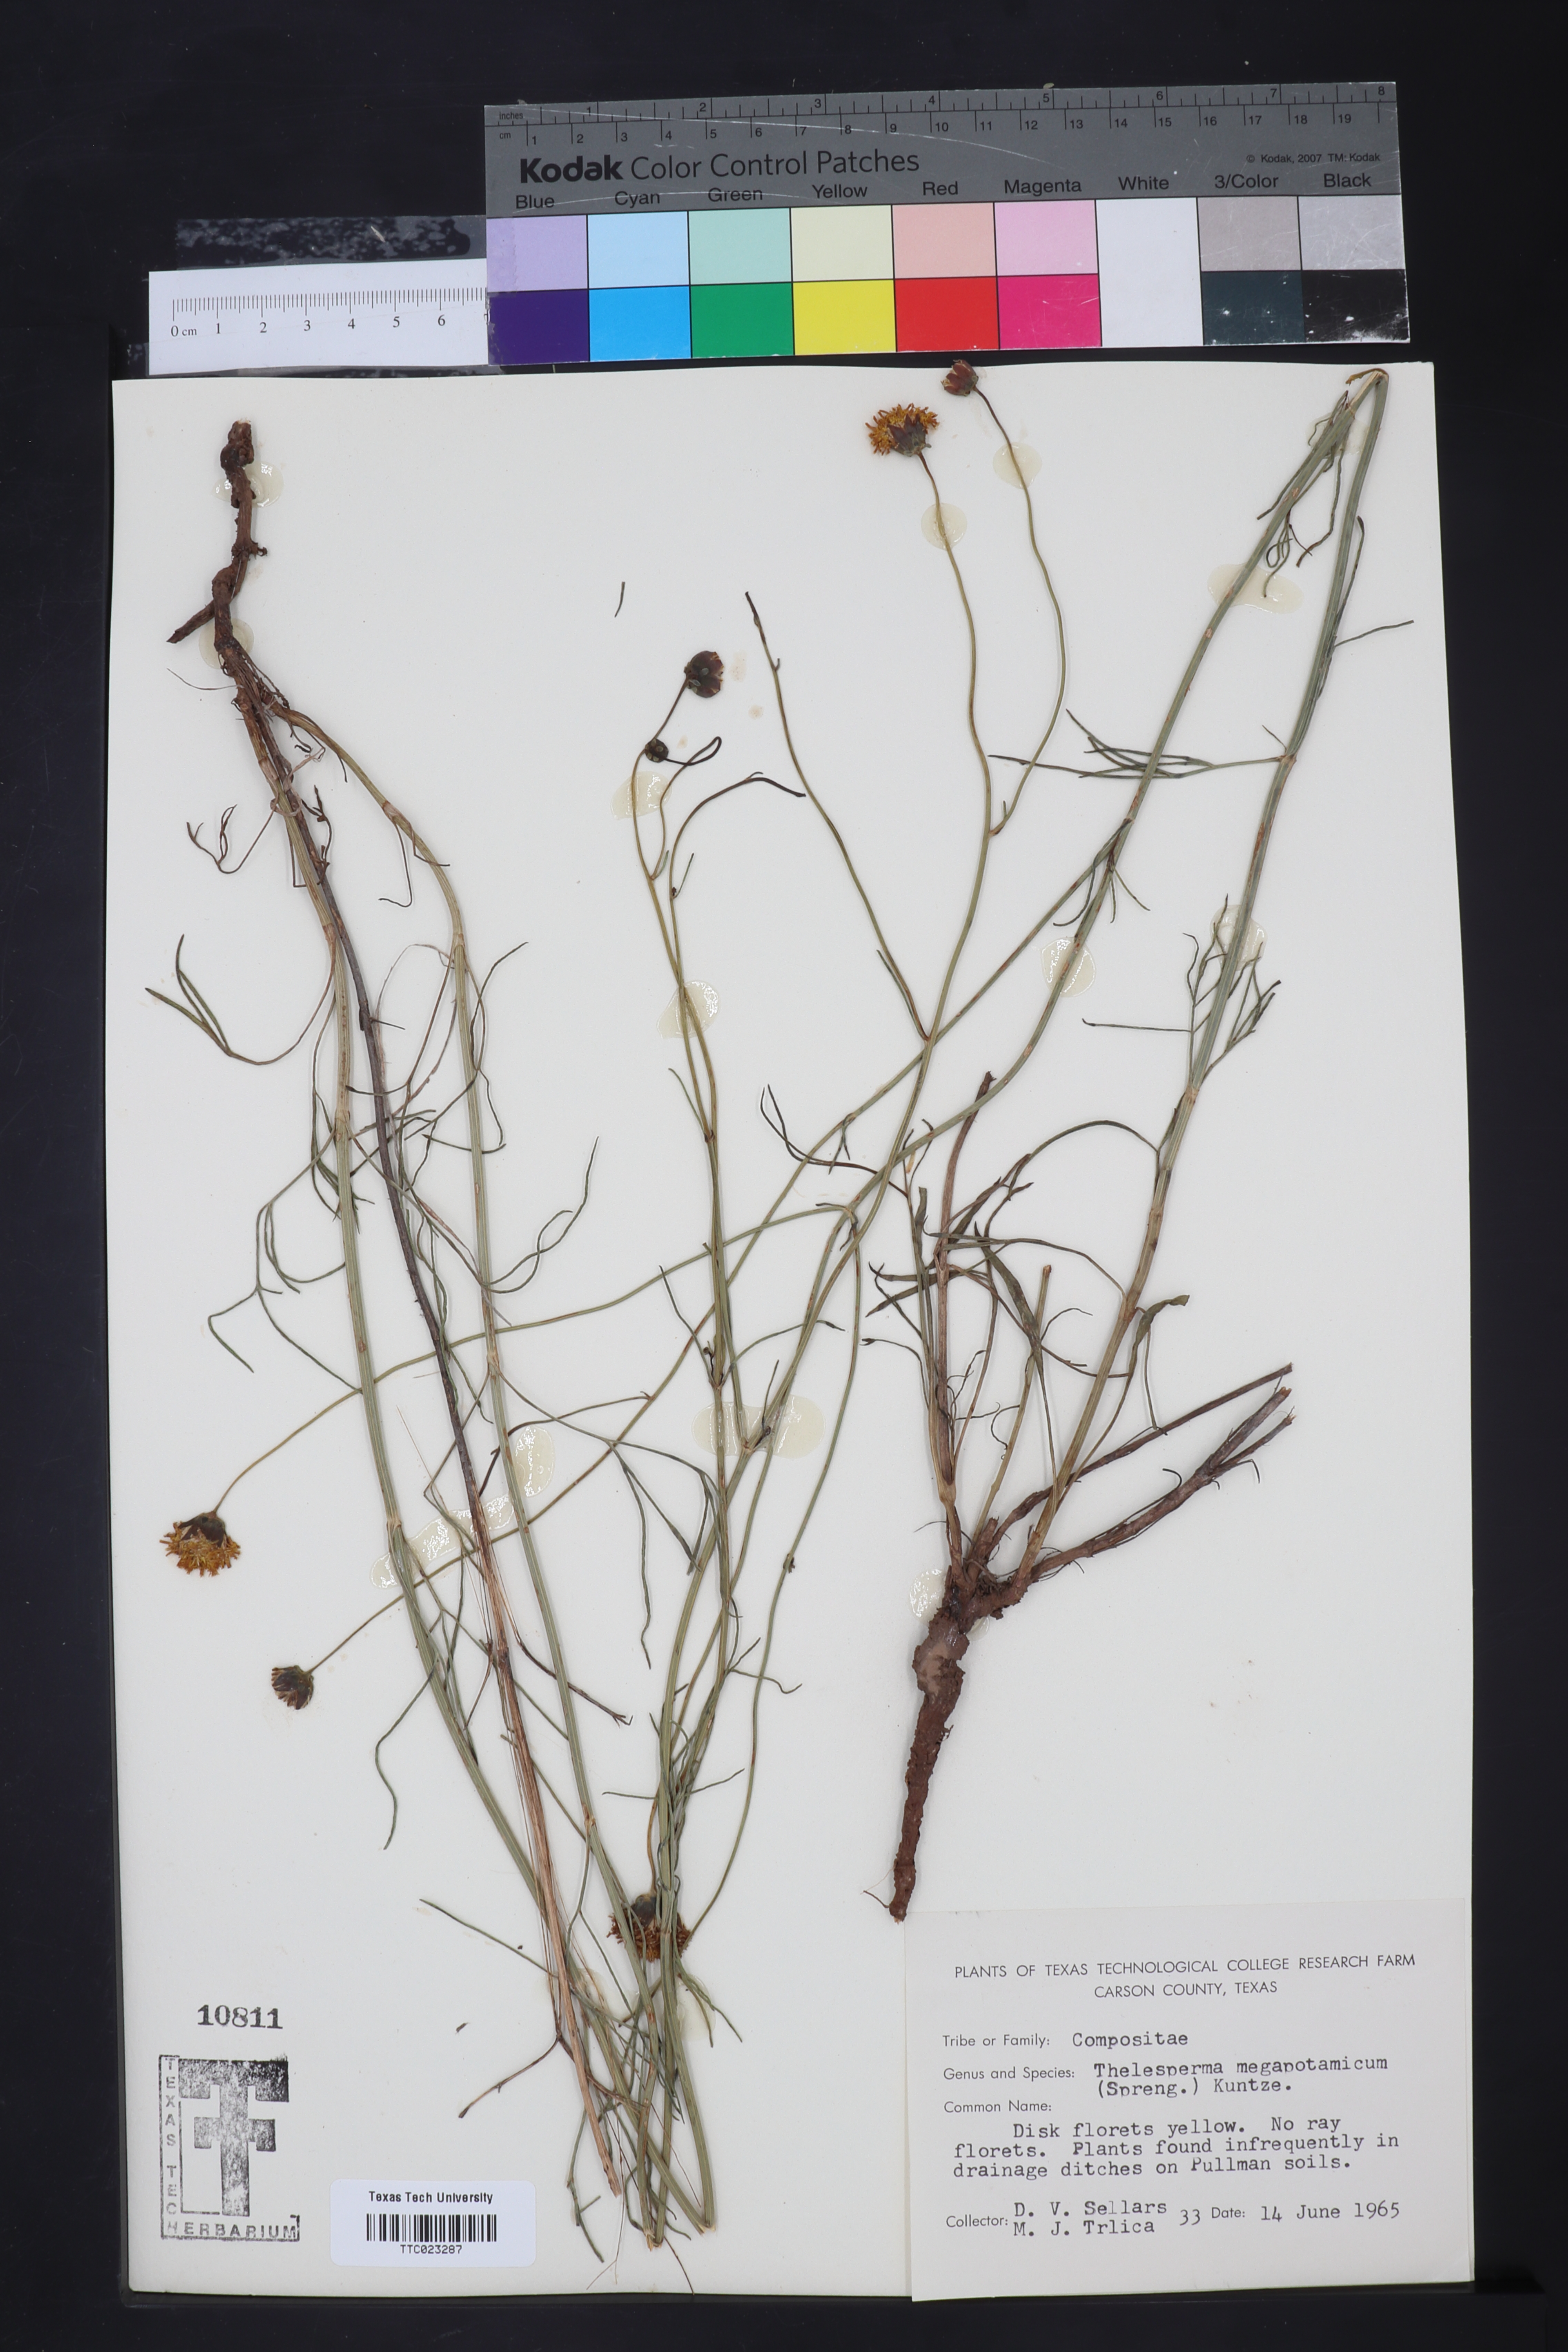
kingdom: Plantae
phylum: Tracheophyta
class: Magnoliopsida
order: Asterales
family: Asteraceae
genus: Thelesperma
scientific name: Thelesperma megapotamicum
